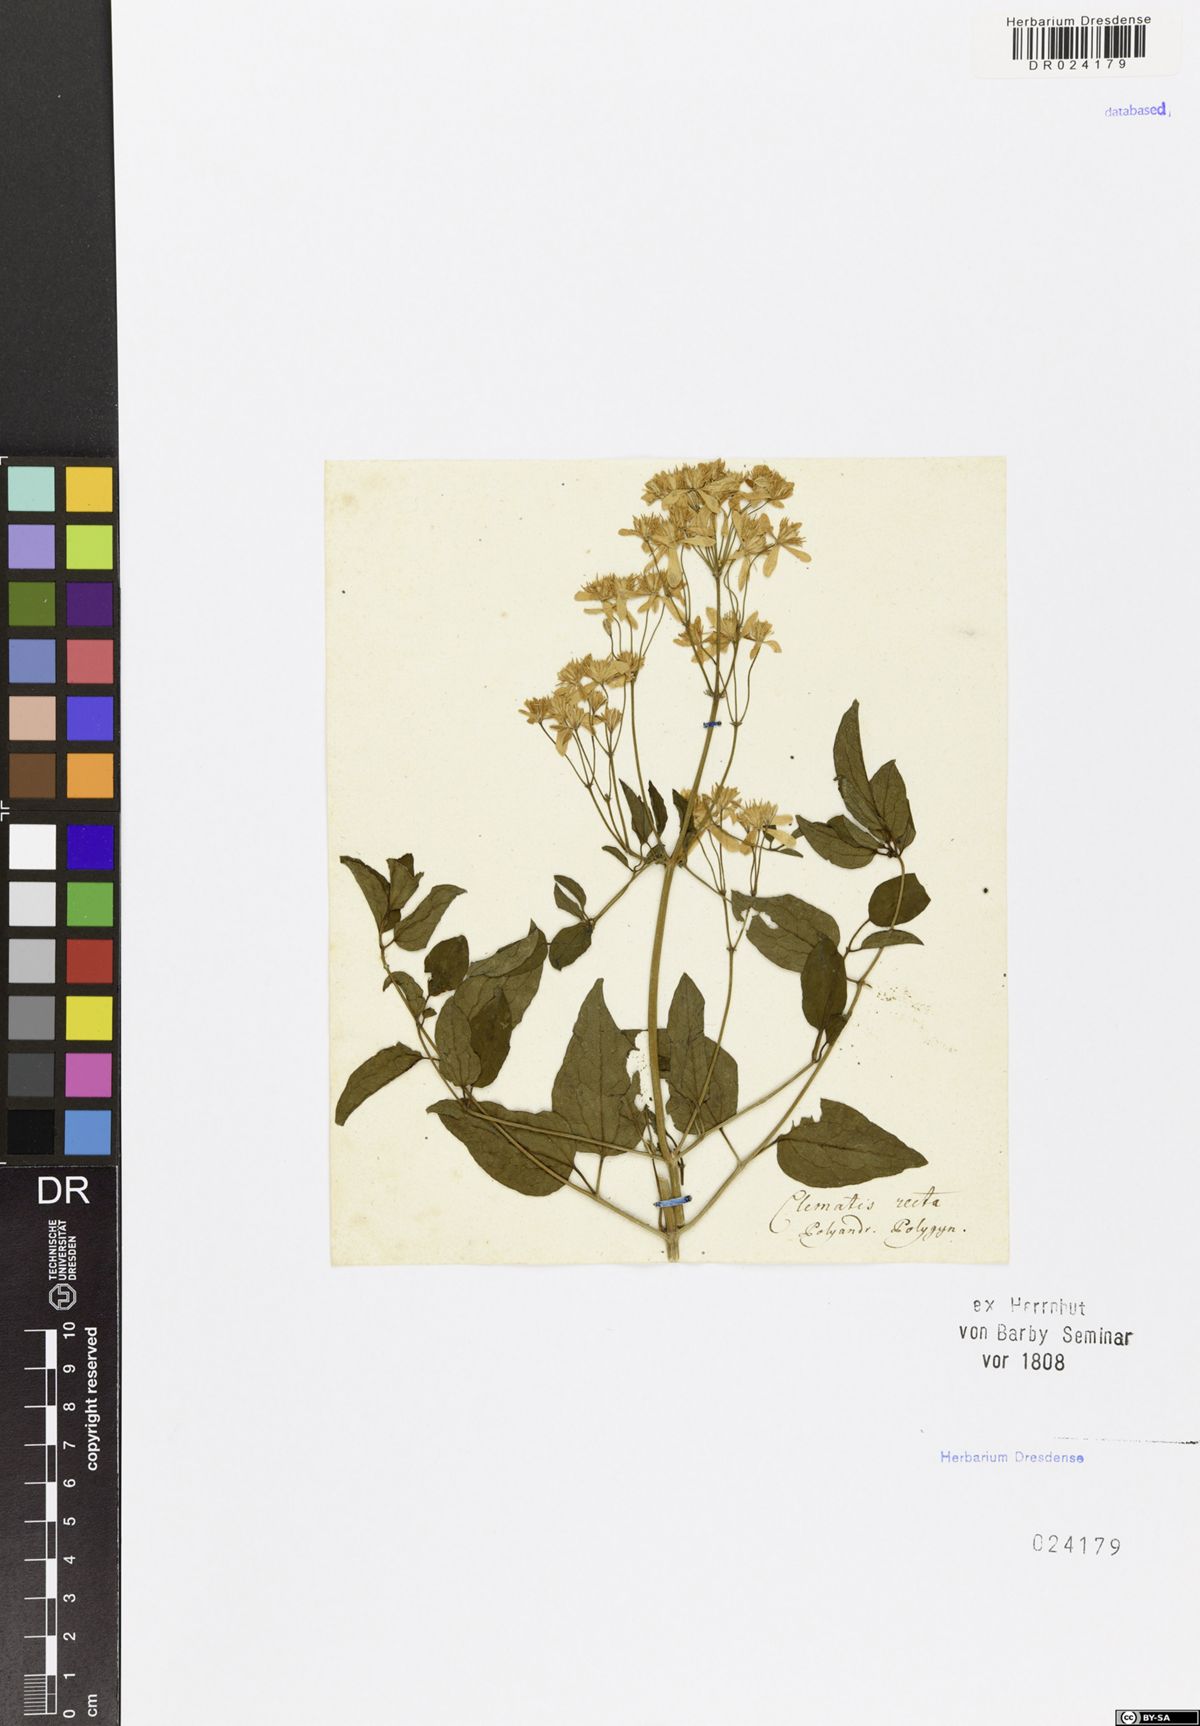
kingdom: Plantae
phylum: Tracheophyta
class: Magnoliopsida
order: Ranunculales
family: Ranunculaceae
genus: Clematis
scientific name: Clematis recta
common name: Ground clematis
